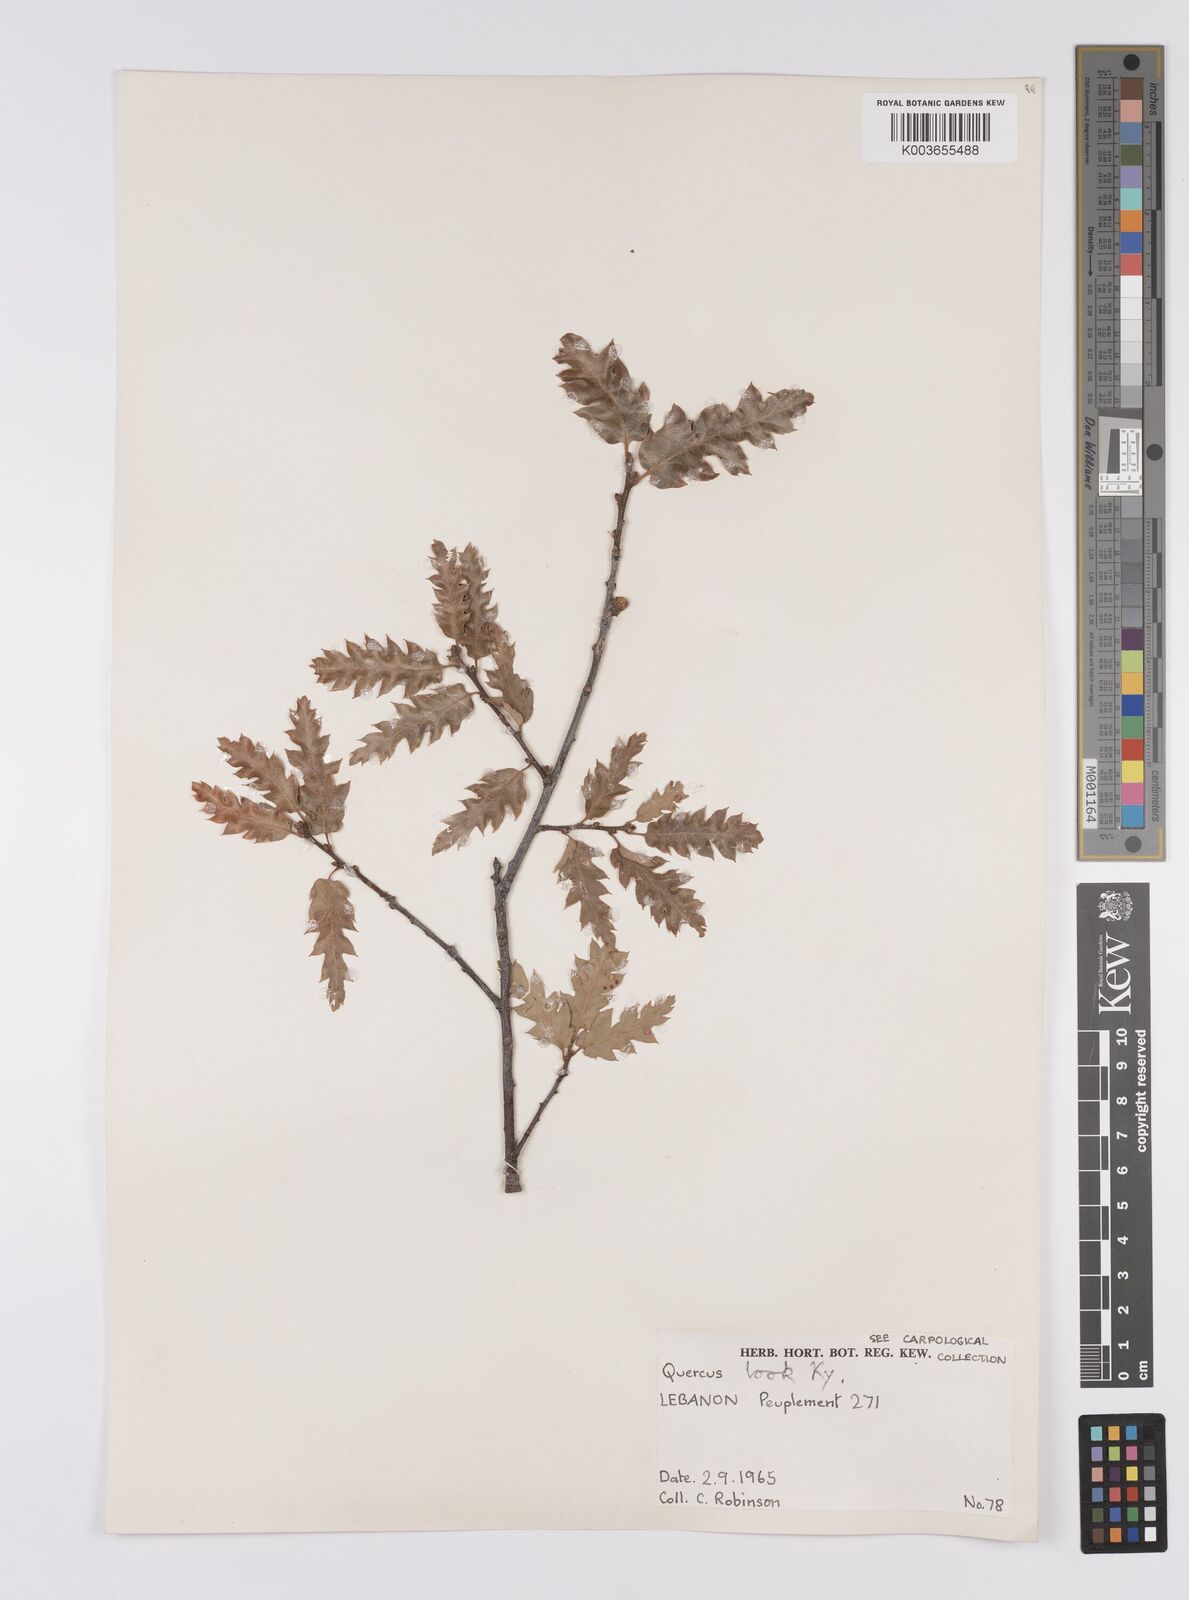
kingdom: Plantae
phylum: Tracheophyta
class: Magnoliopsida
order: Fagales
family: Fagaceae
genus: Quercus
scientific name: Quercus look
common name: Look oak
